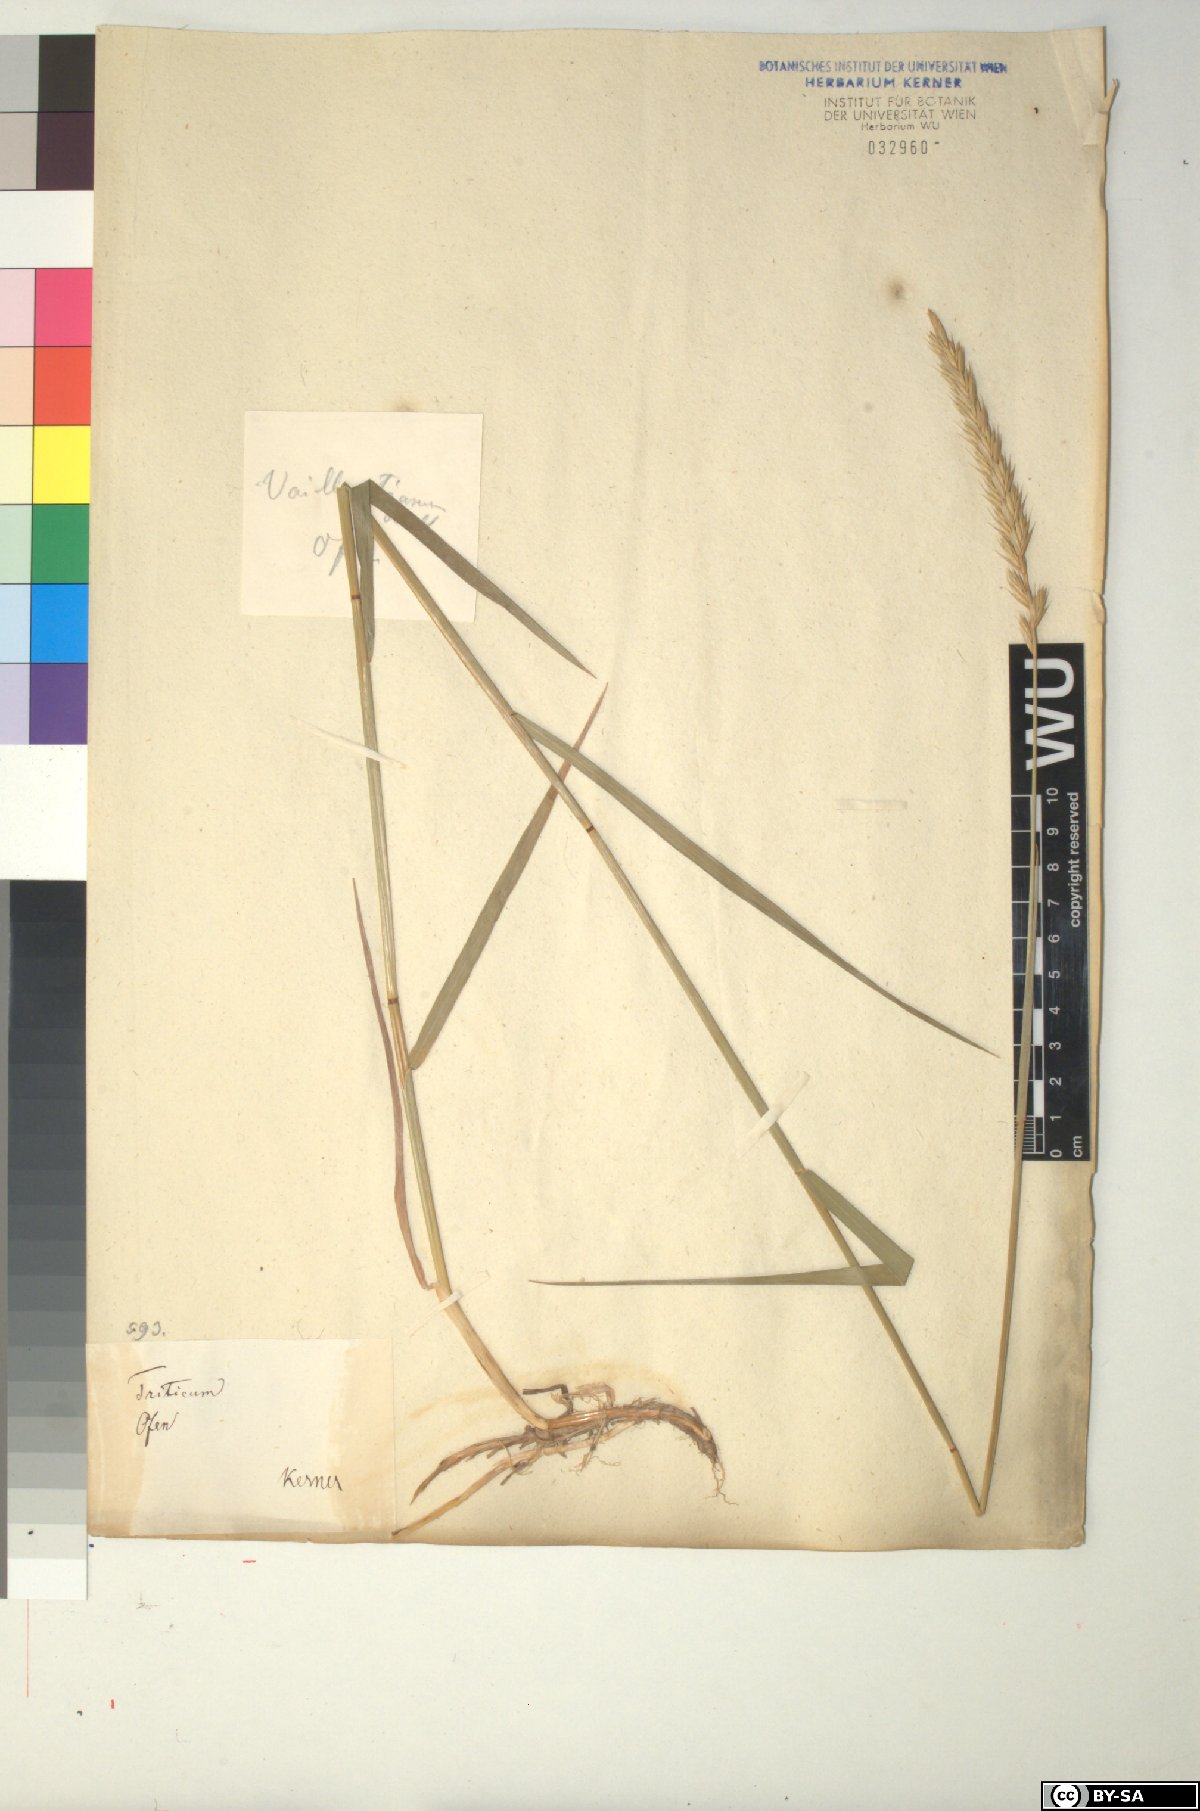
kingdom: Plantae
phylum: Tracheophyta
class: Liliopsida
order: Poales
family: Poaceae
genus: Elymus
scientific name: Elymus repens
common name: Quackgrass
